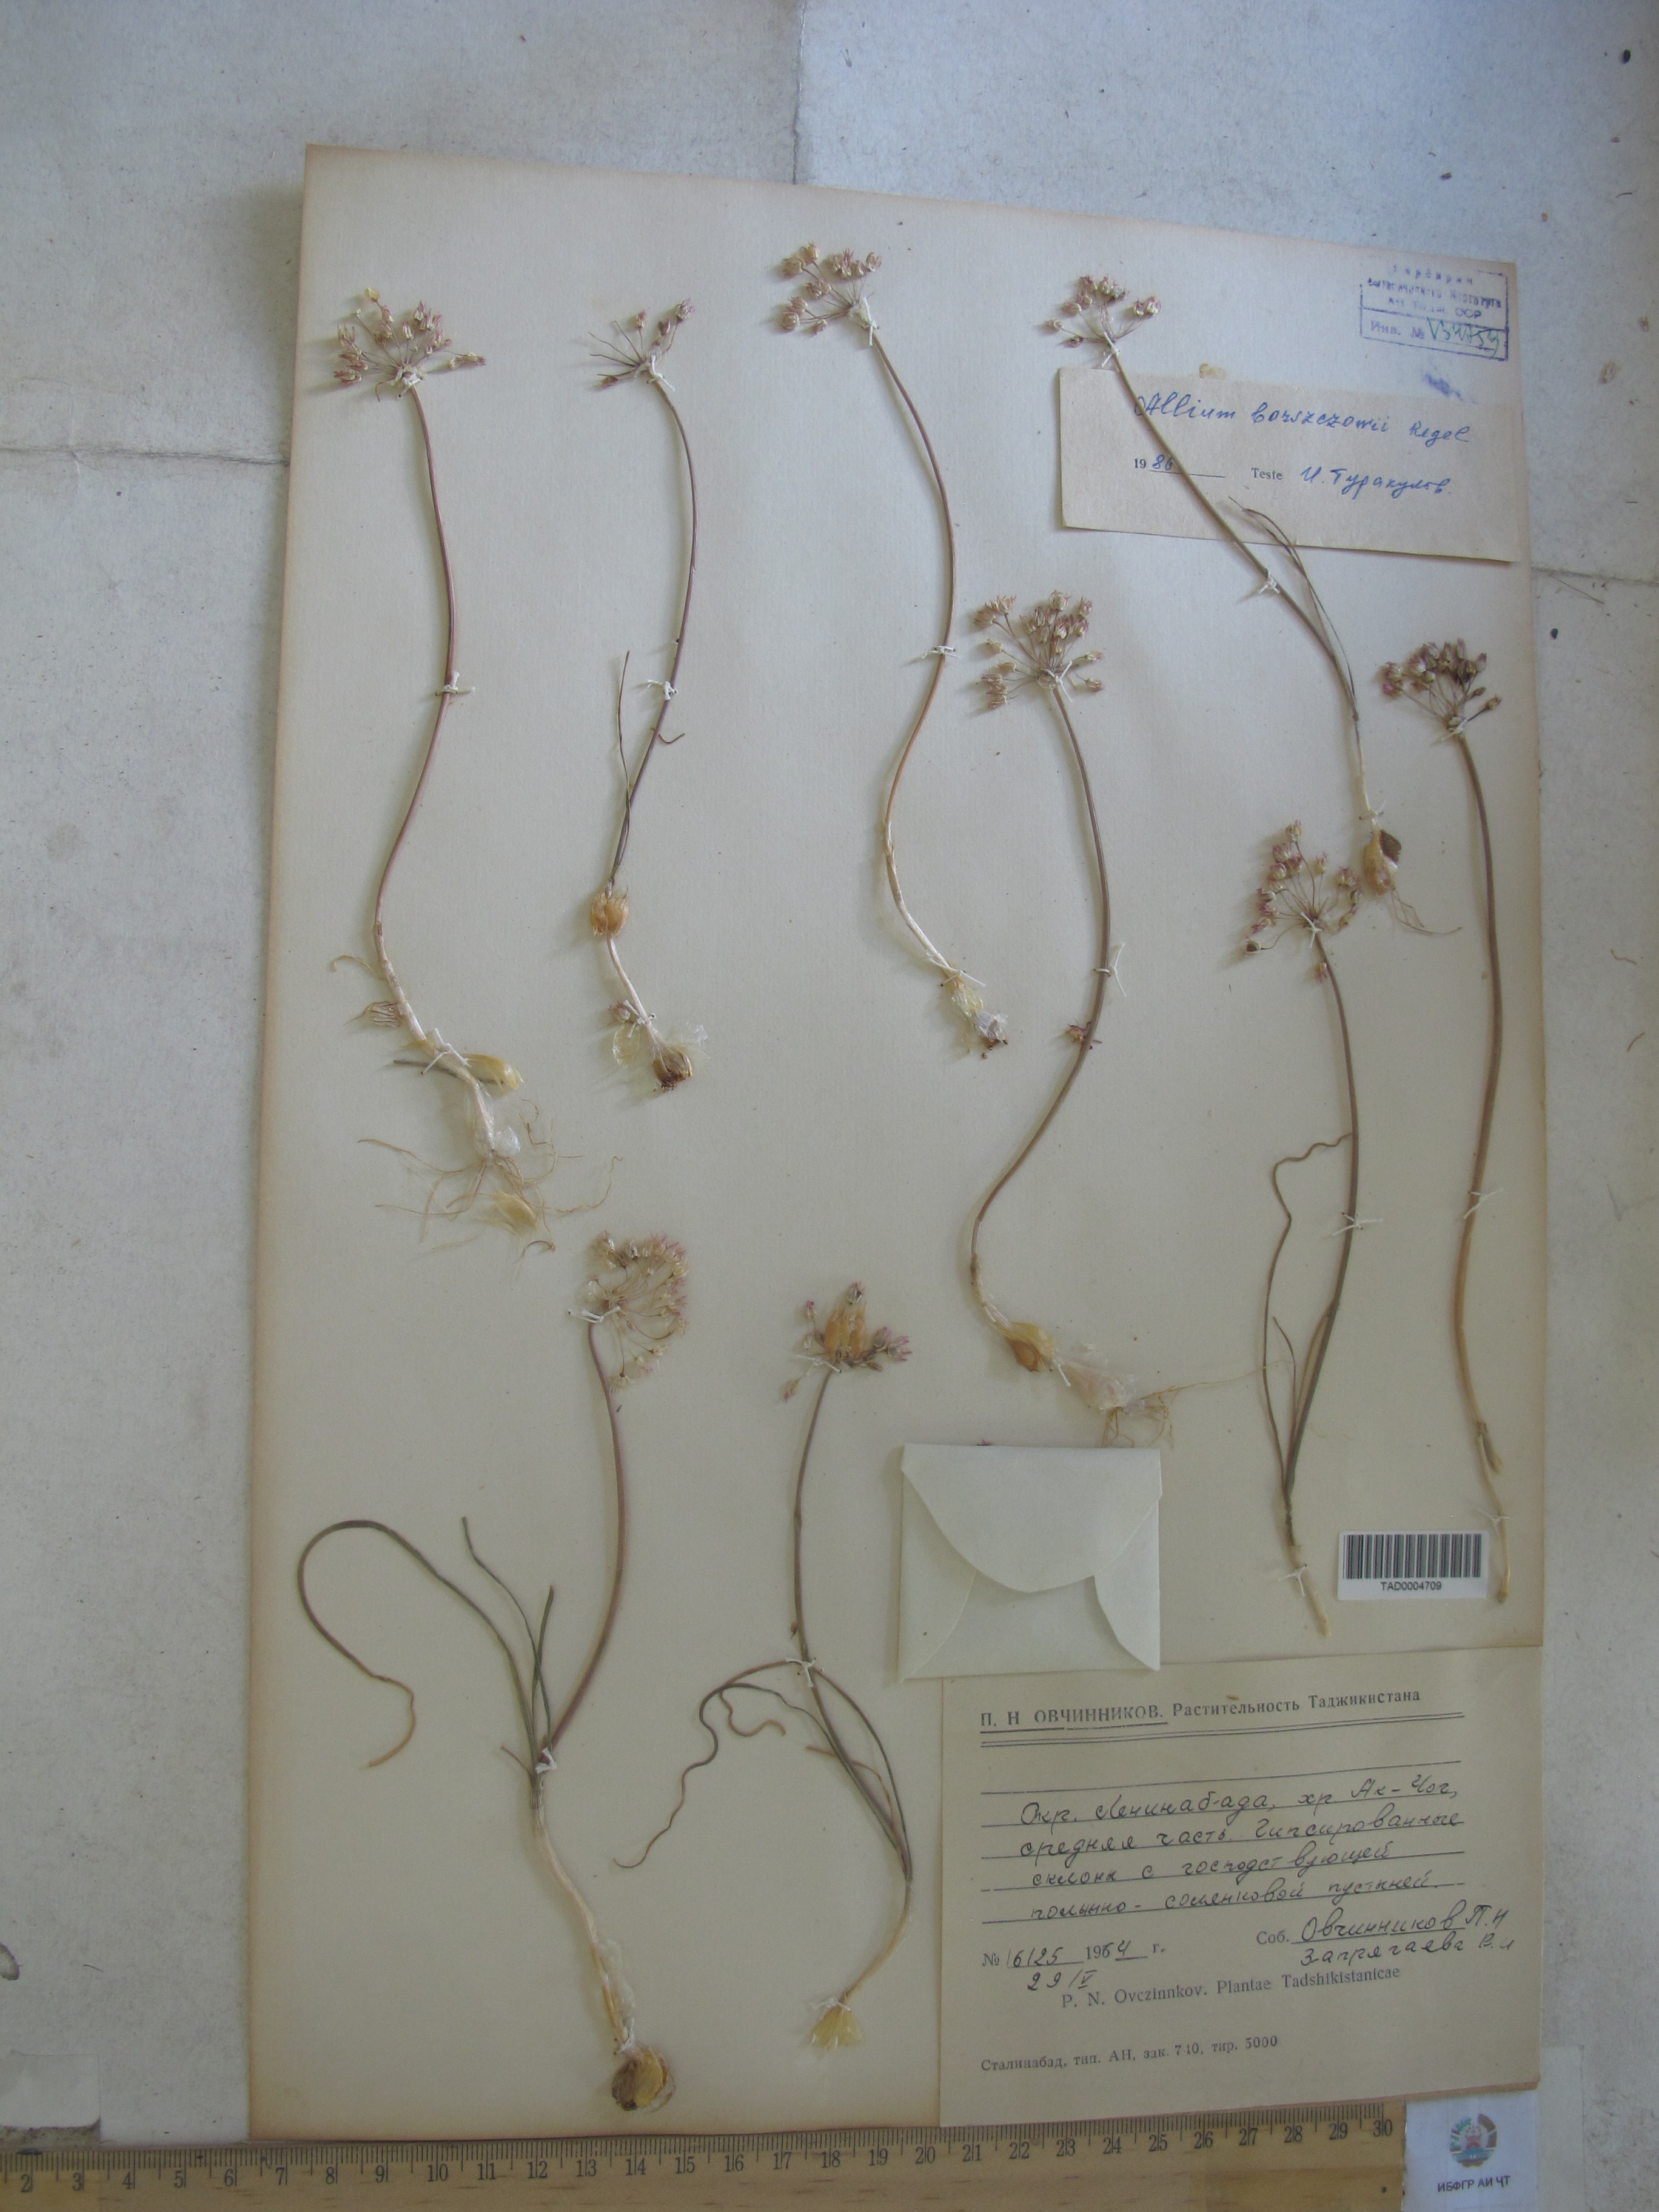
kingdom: Plantae
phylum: Tracheophyta
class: Liliopsida
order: Asparagales
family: Amaryllidaceae
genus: Allium
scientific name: Allium borszczowii
